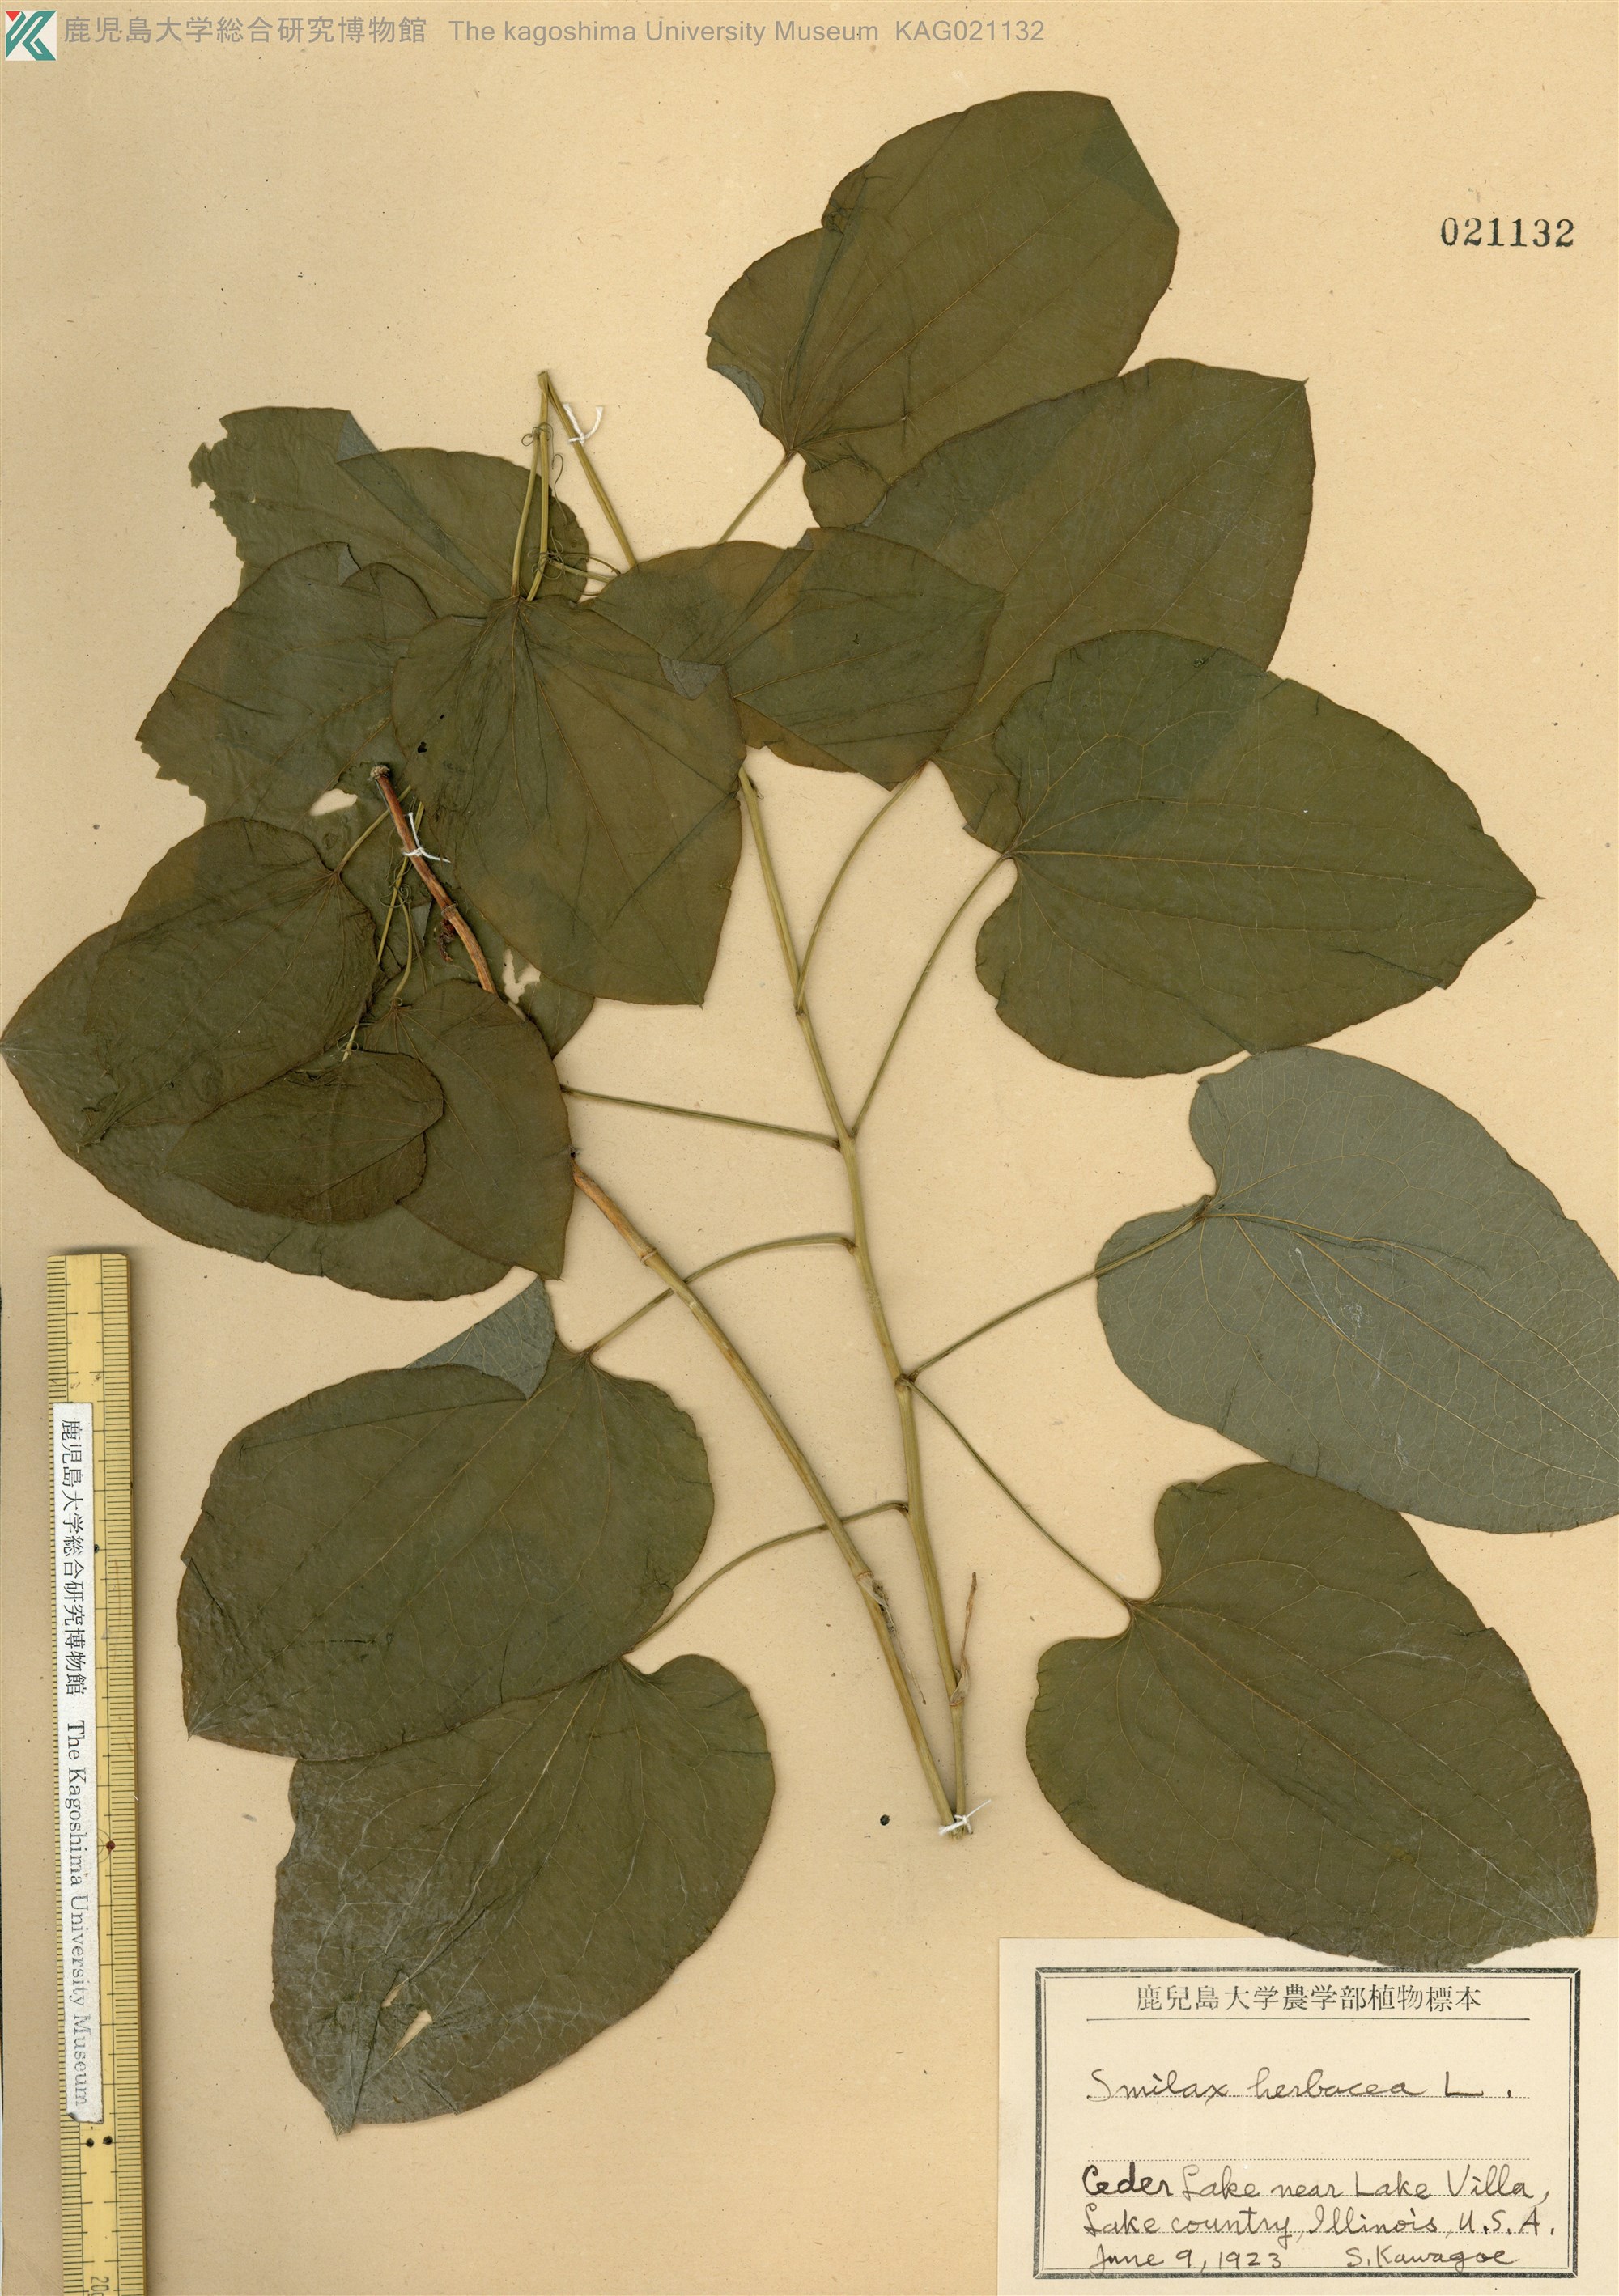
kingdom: Plantae
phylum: Tracheophyta
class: Liliopsida
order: Liliales
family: Smilacaceae
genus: Smilax
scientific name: Smilax herbacea
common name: Jacob's-ladder
